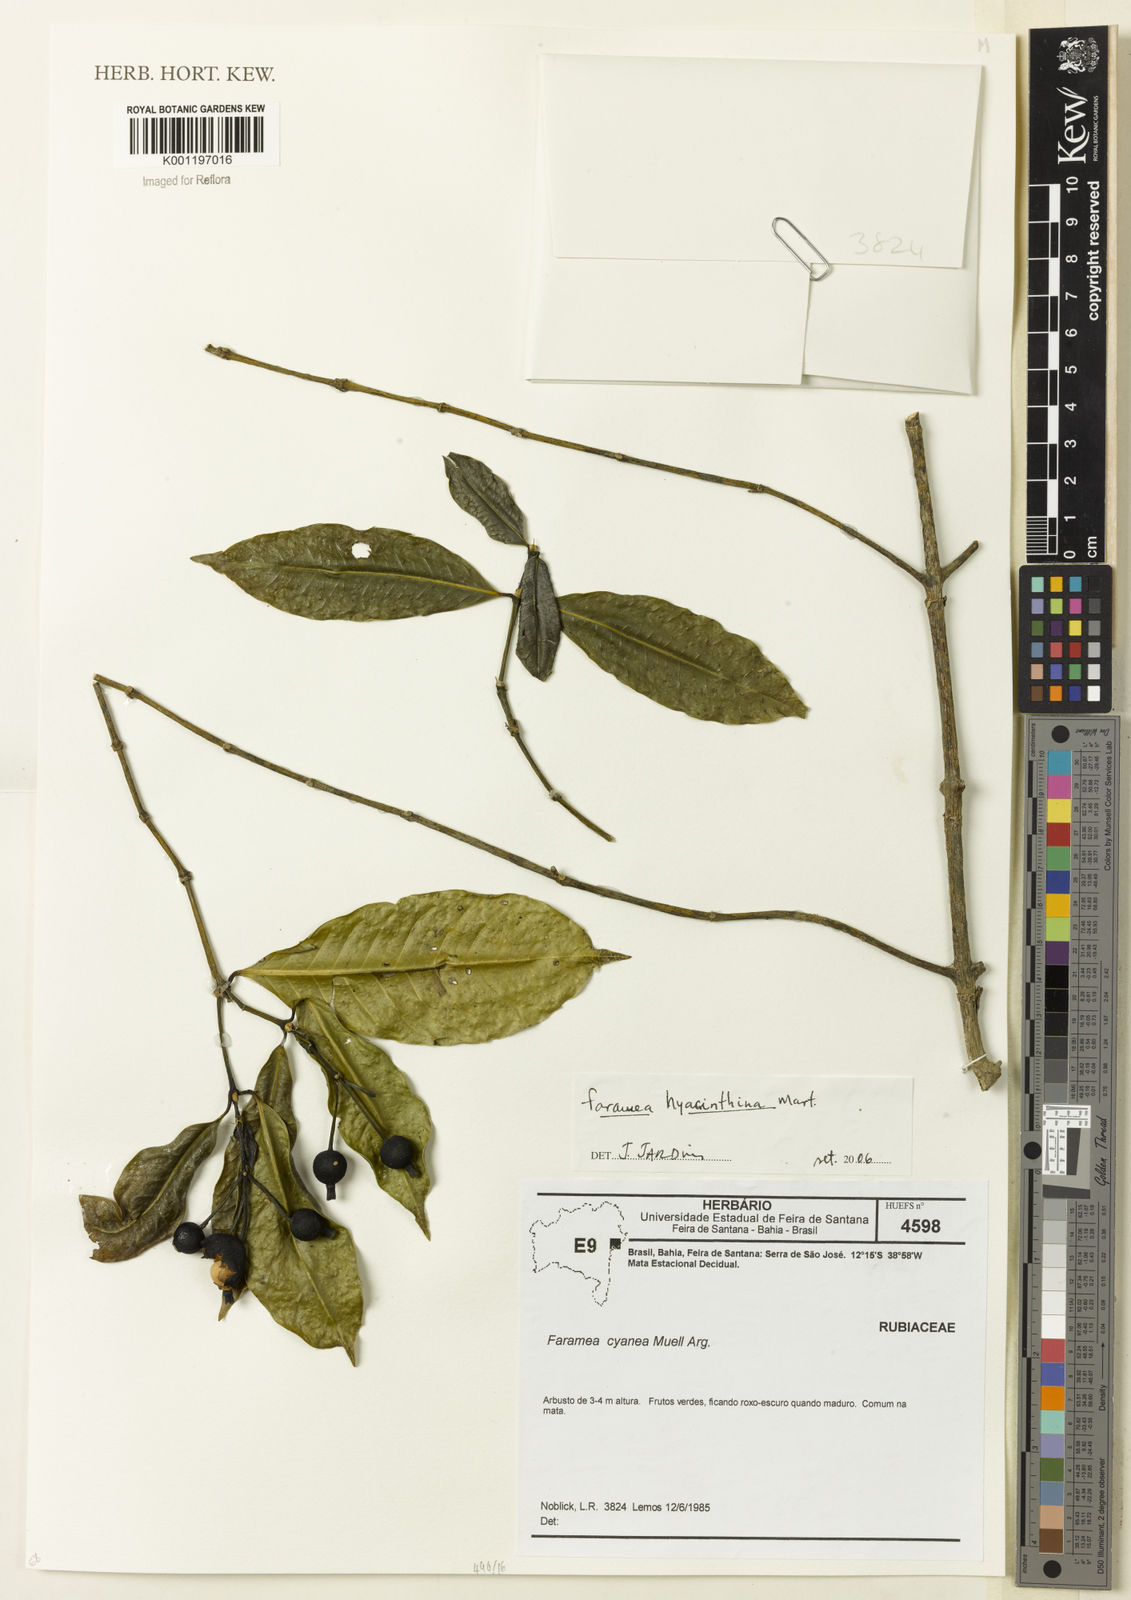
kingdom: Plantae
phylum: Tracheophyta
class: Magnoliopsida
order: Gentianales
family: Rubiaceae
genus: Faramea
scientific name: Faramea hyacinthina
